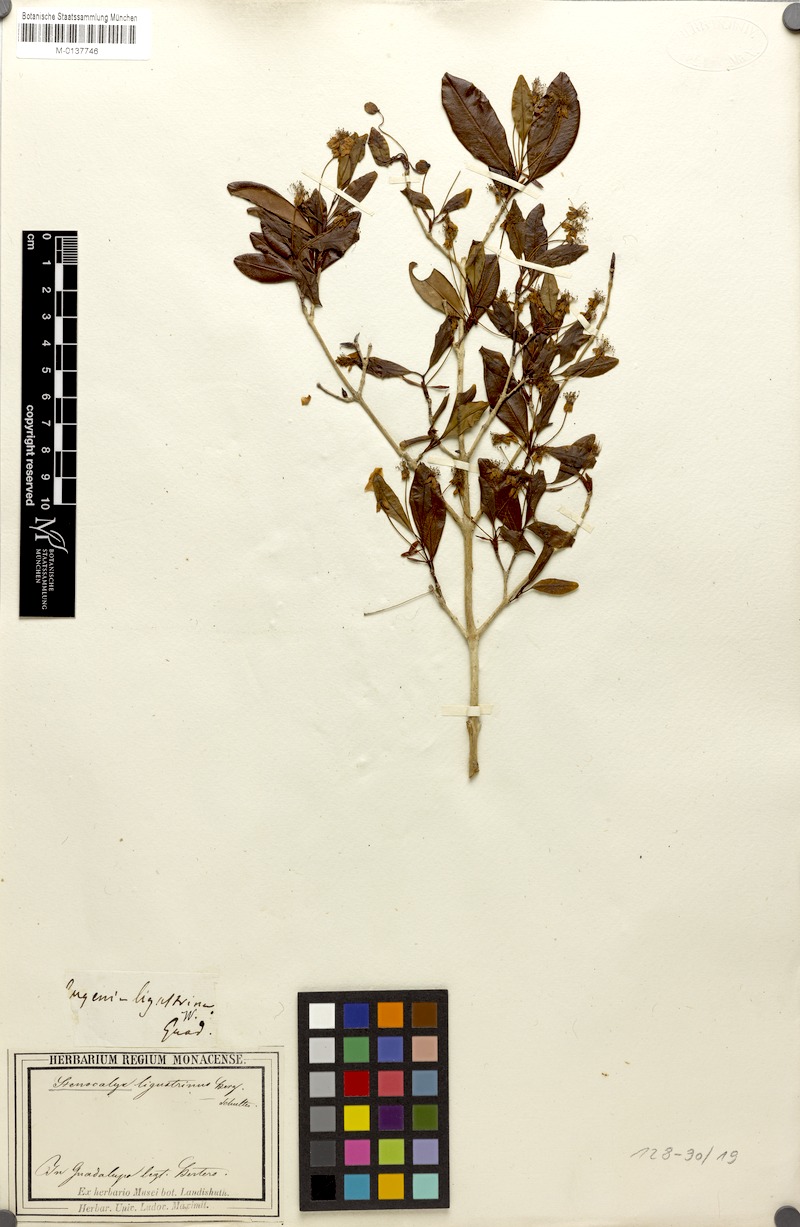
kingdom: Plantae
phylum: Tracheophyta
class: Magnoliopsida
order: Myrtales
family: Myrtaceae
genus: Eugenia
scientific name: Eugenia ligustrina
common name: Privet stopper
